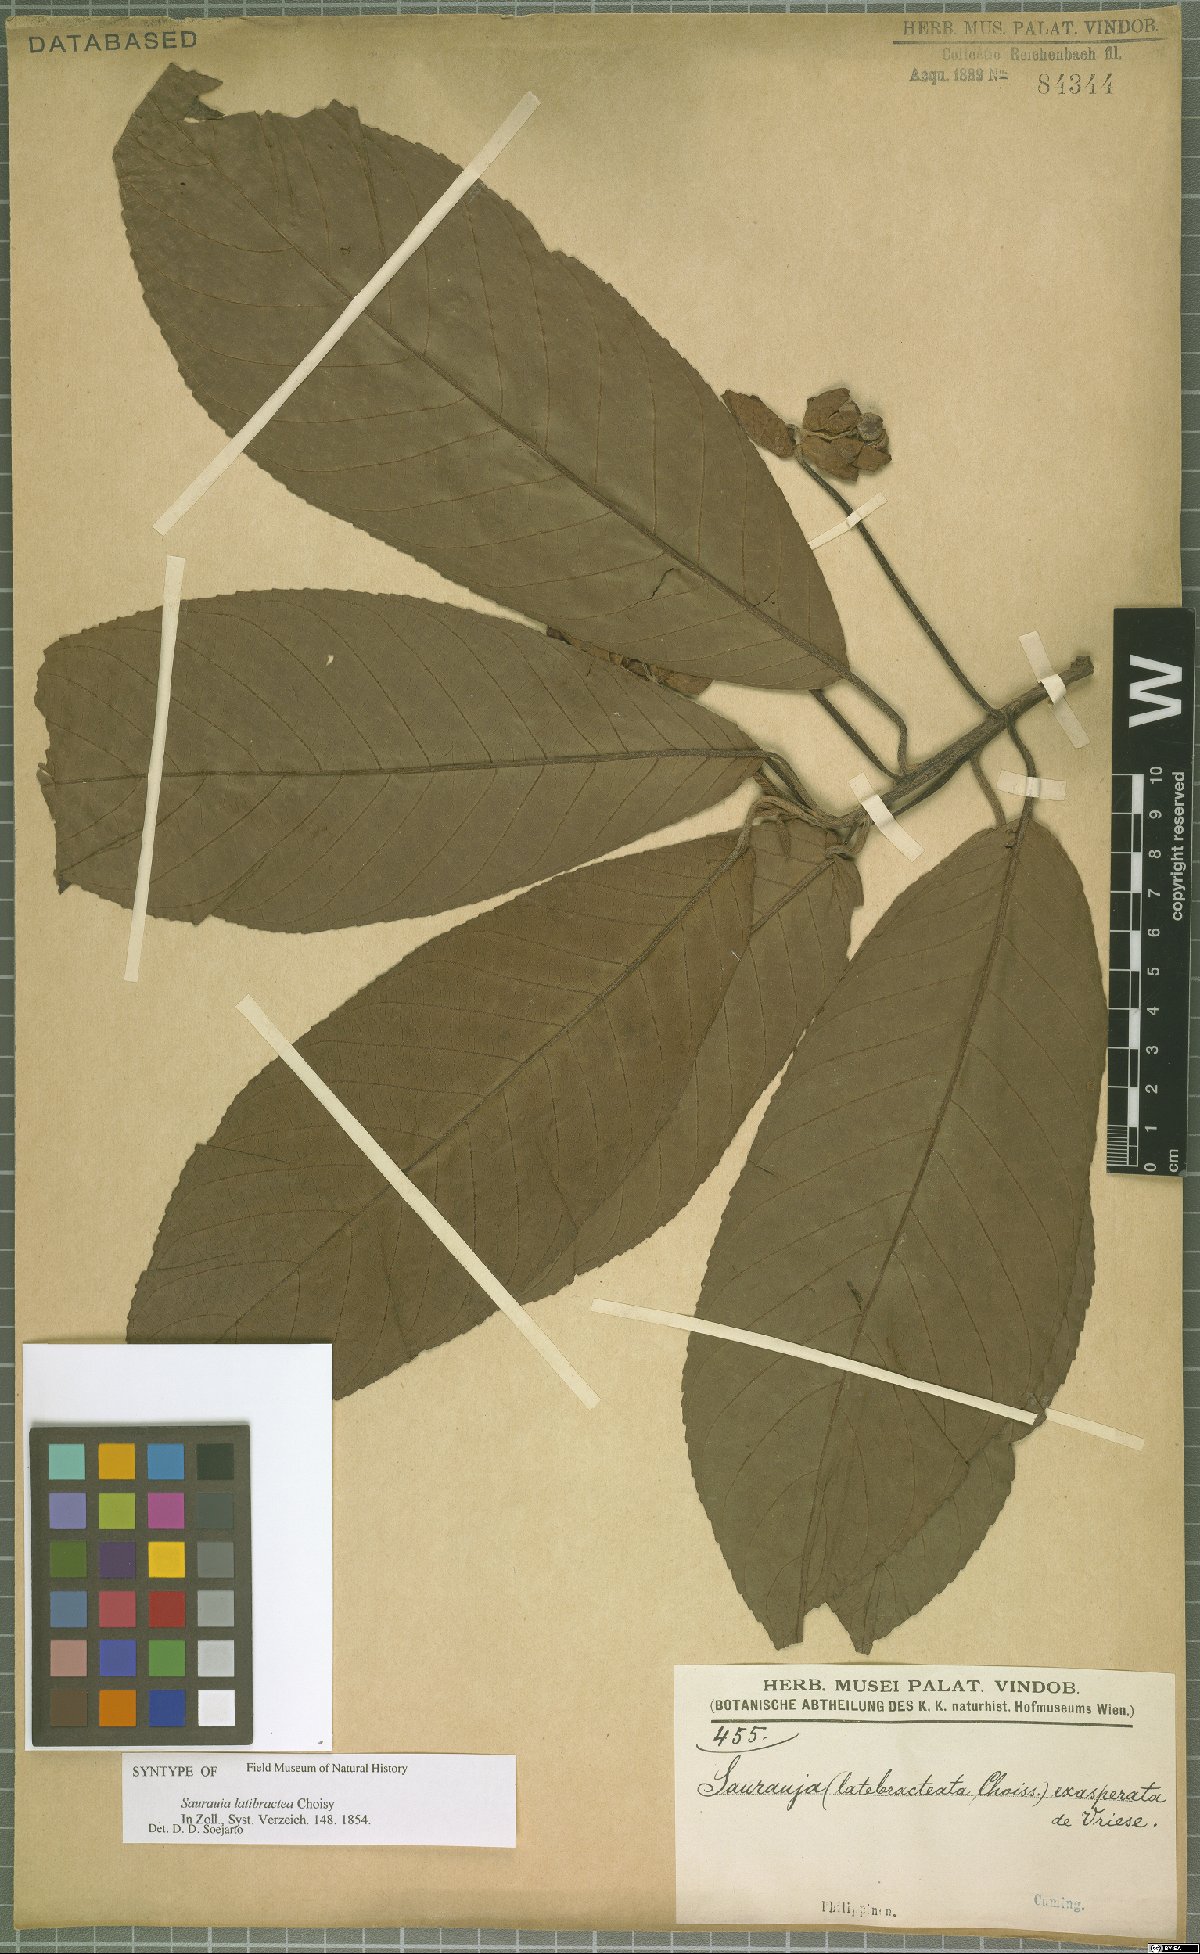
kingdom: Plantae
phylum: Tracheophyta
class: Magnoliopsida
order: Ericales
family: Actinidiaceae
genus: Saurauia
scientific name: Saurauia latibractea
